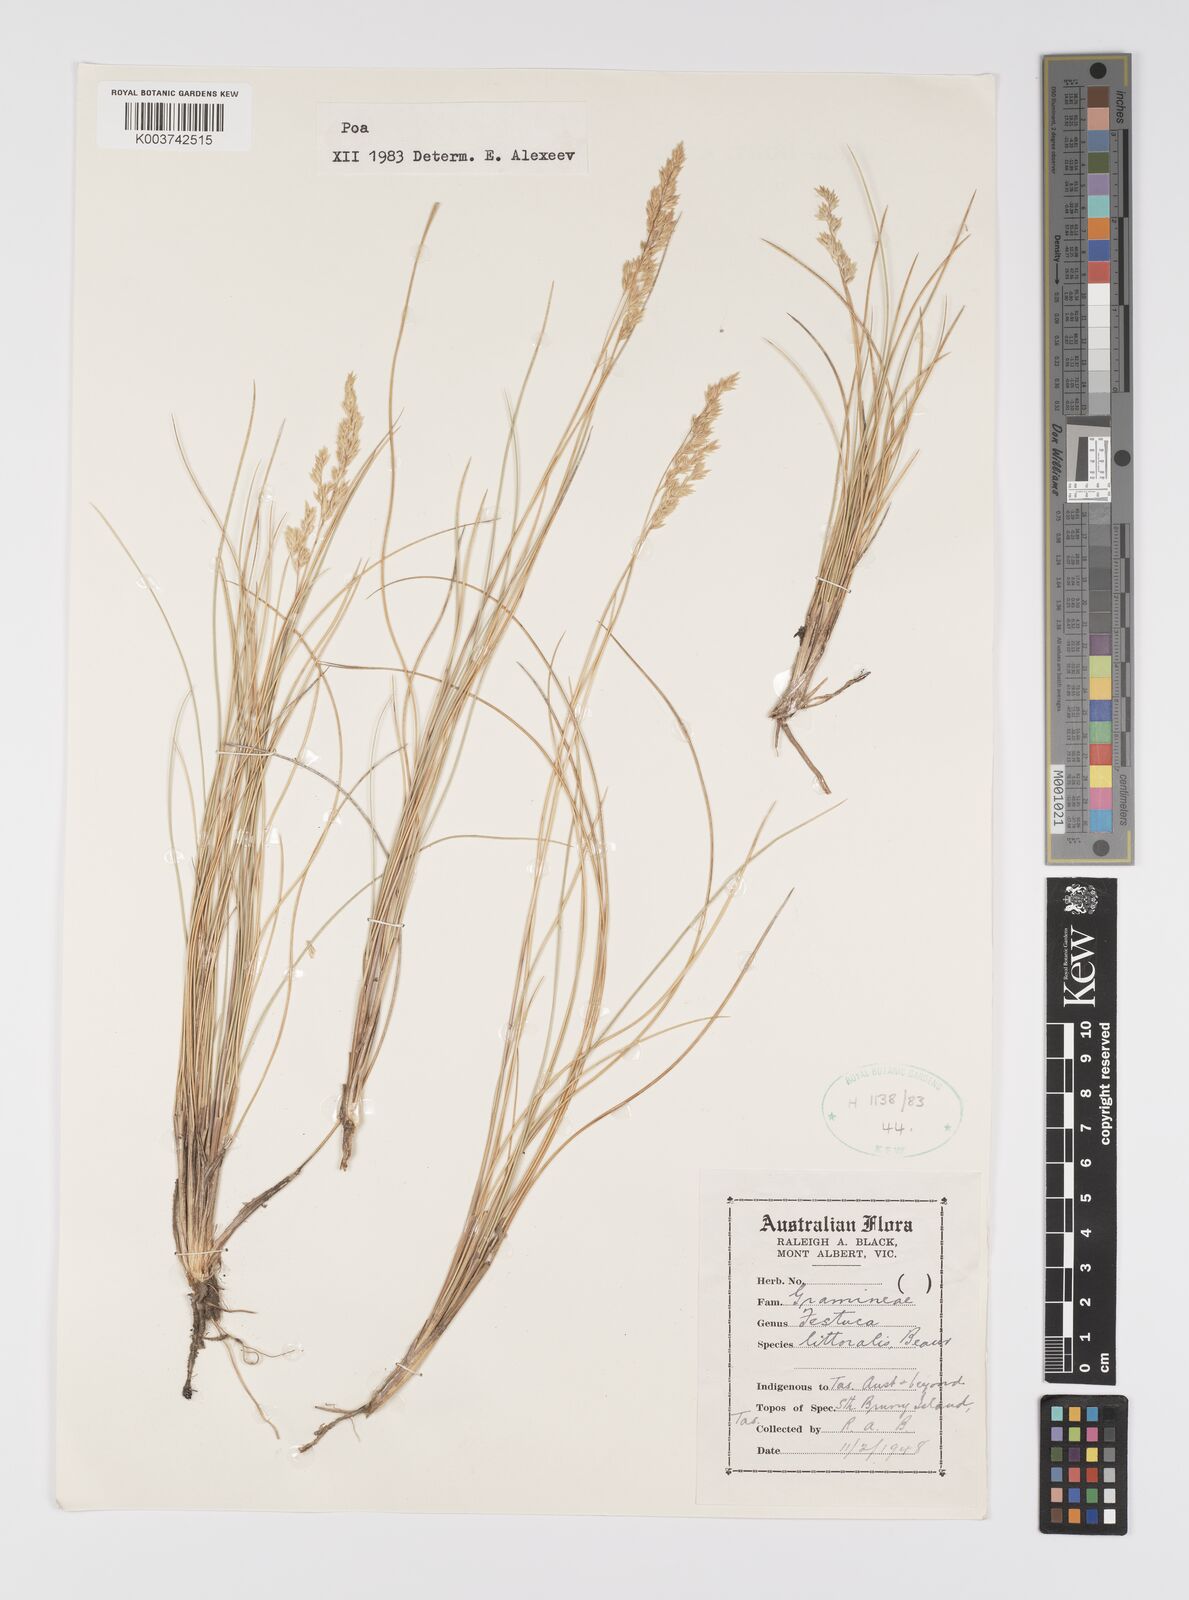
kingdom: Plantae
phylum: Tracheophyta
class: Liliopsida
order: Poales
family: Poaceae
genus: Poa
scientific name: Poa
